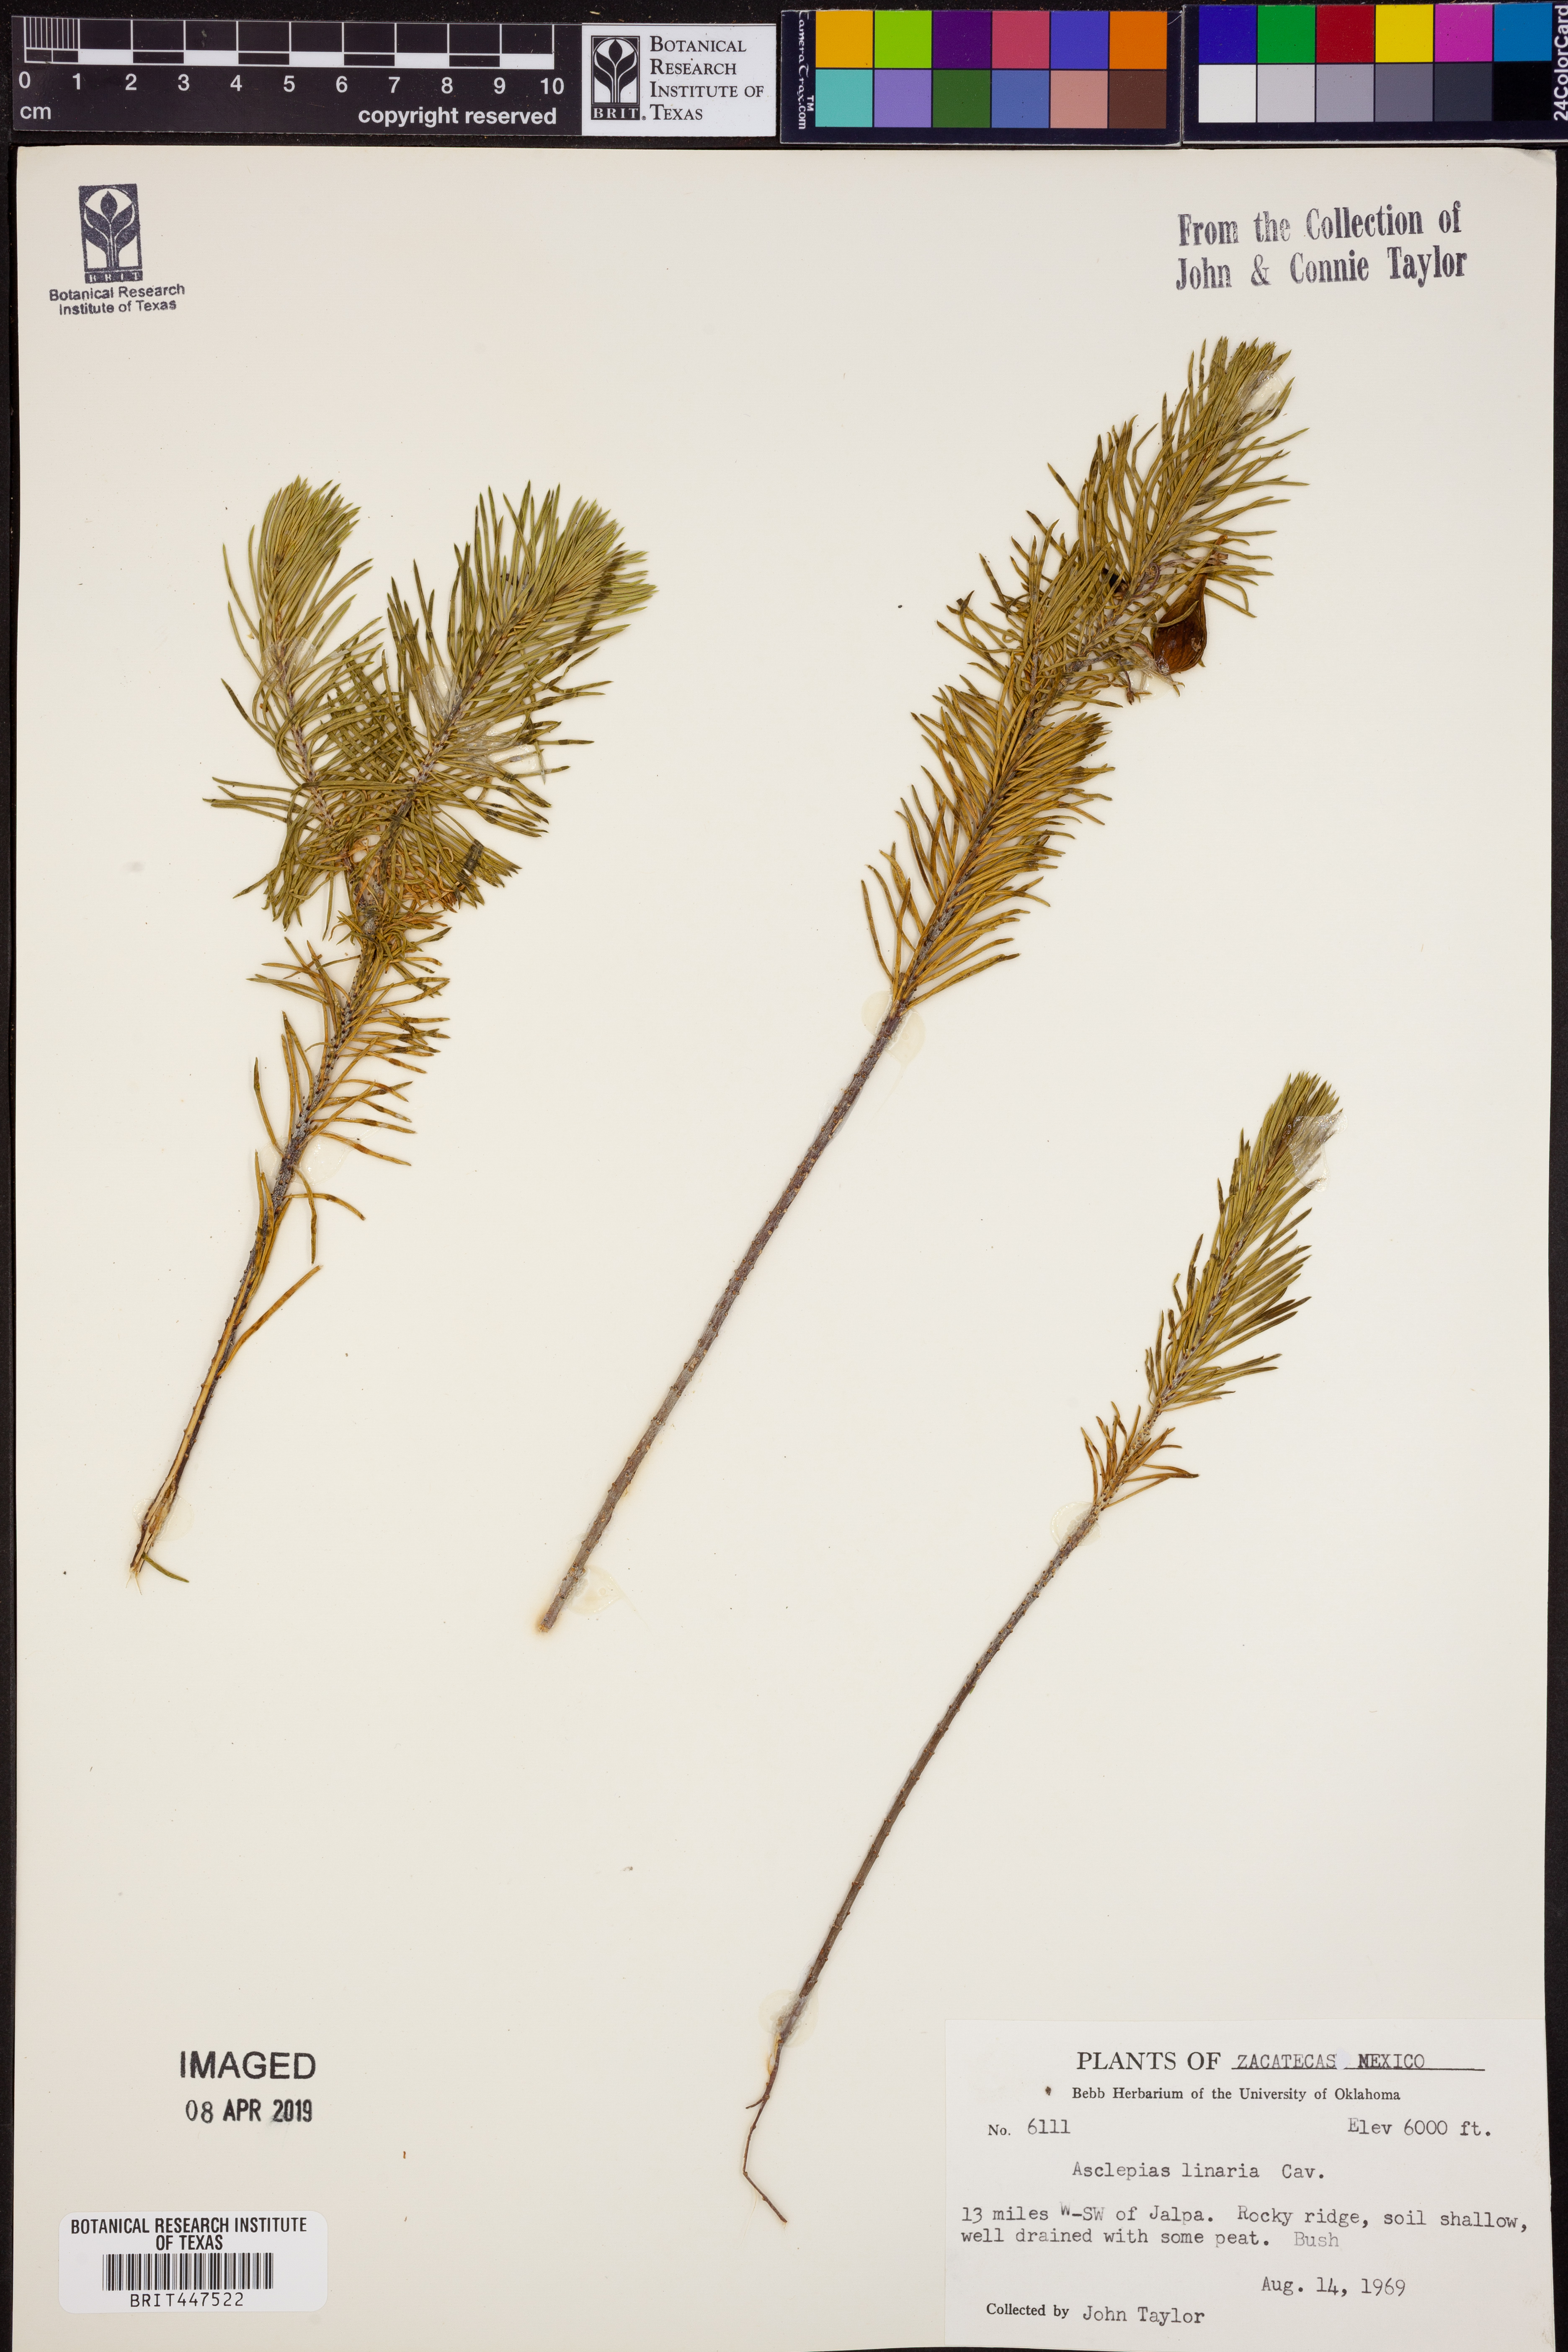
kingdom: Plantae
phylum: Tracheophyta
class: Magnoliopsida
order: Gentianales
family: Apocynaceae
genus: Asclepias
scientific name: Asclepias linaria
